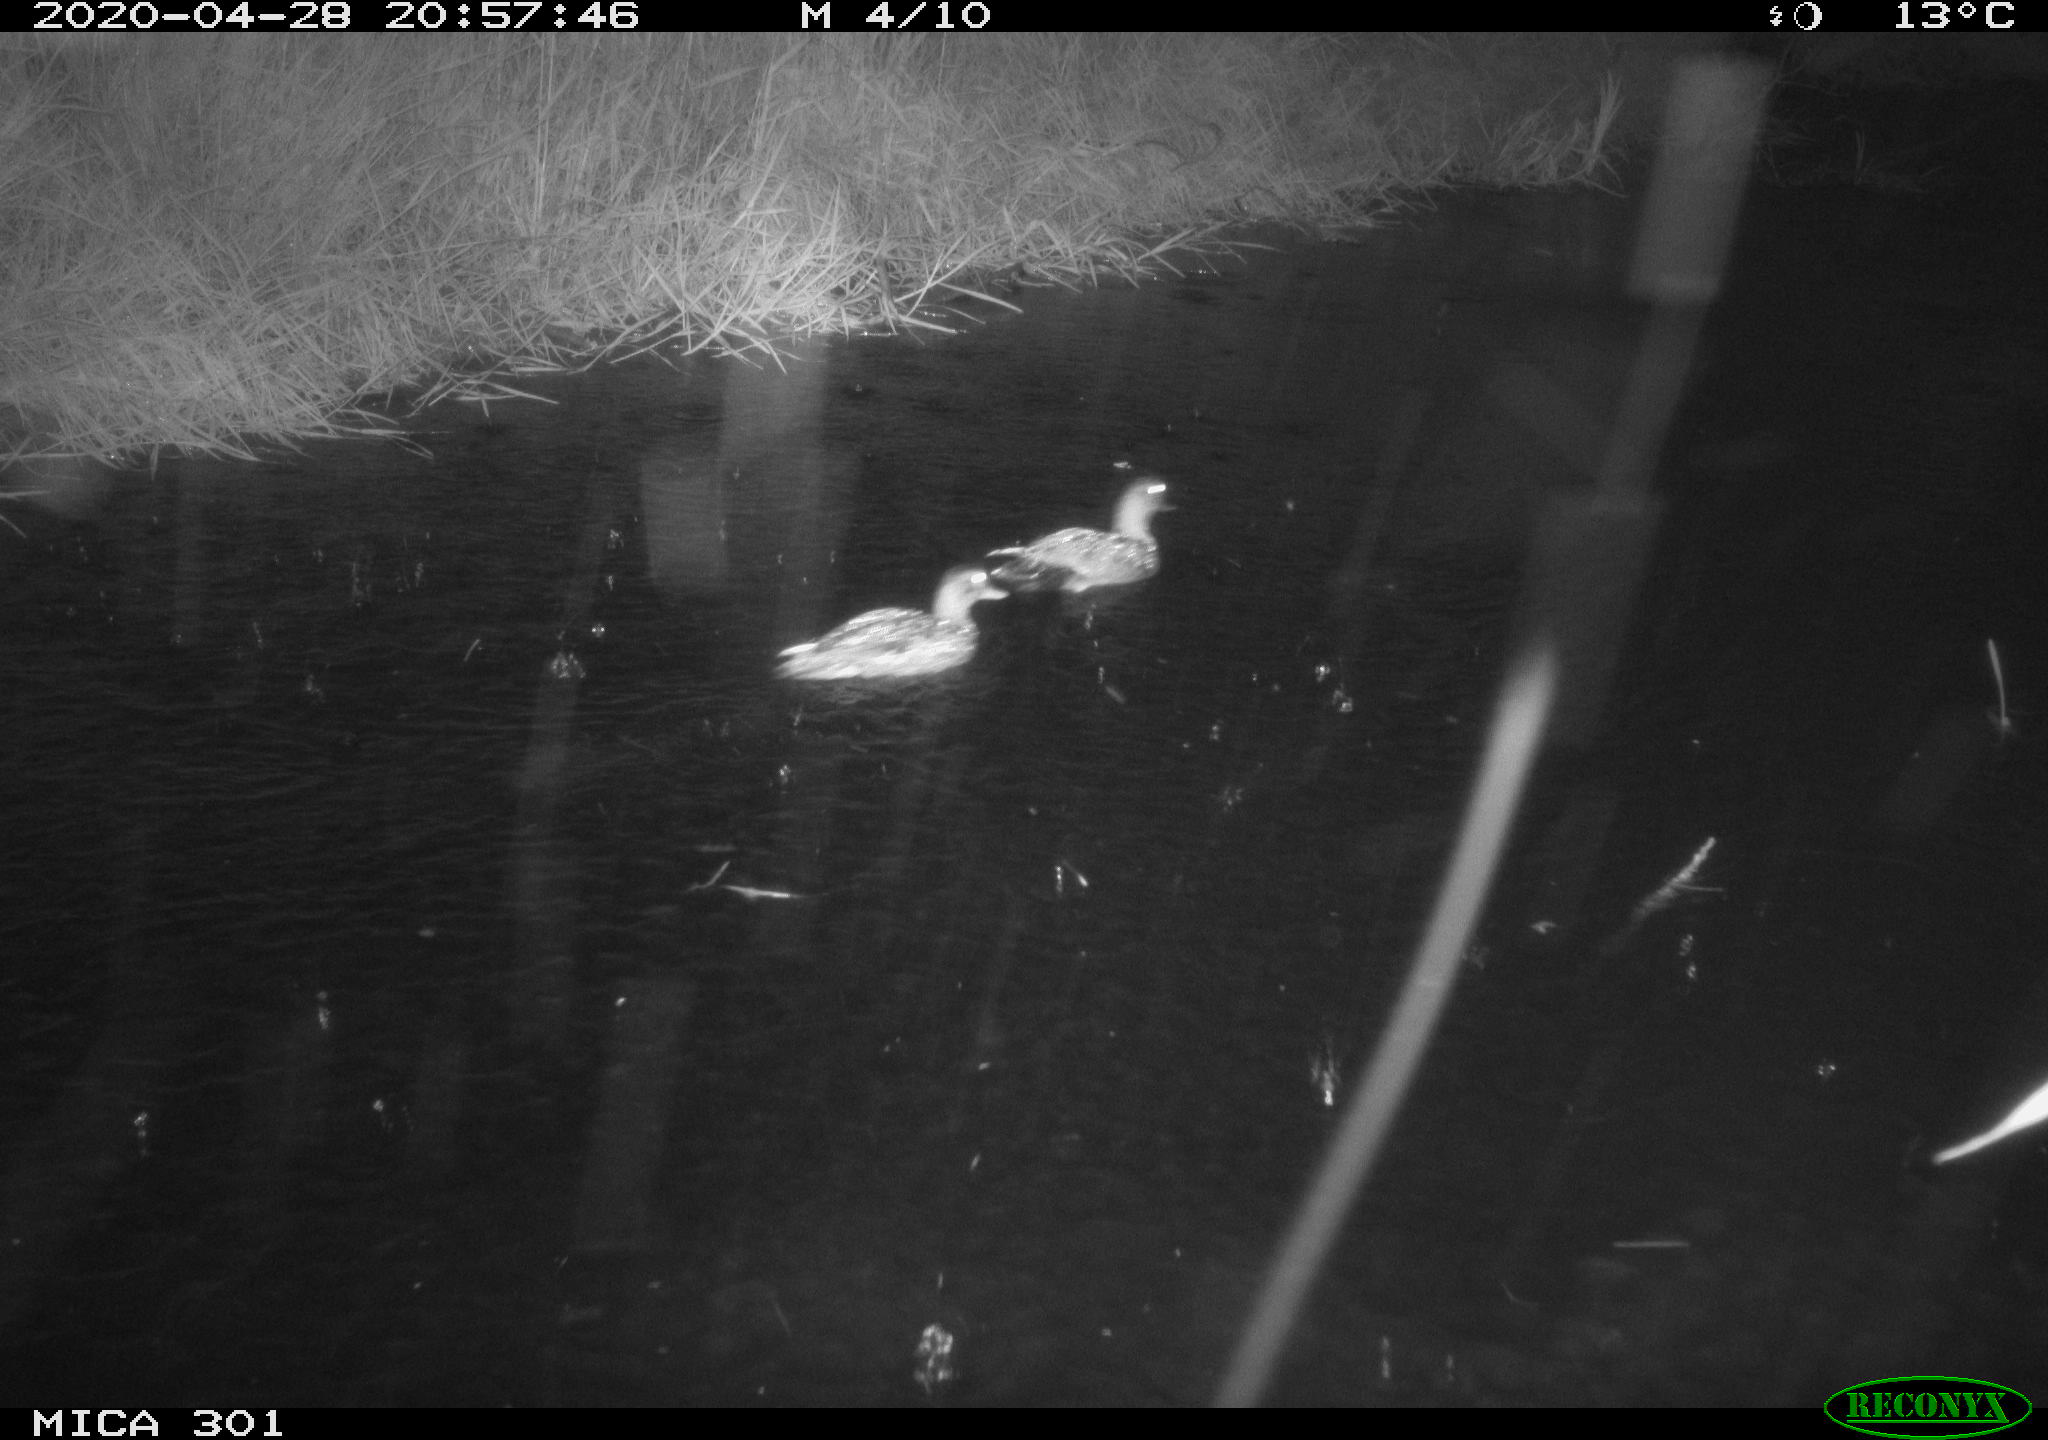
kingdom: Animalia
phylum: Chordata
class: Aves
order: Anseriformes
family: Anatidae
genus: Mareca
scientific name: Mareca strepera
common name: Gadwall
